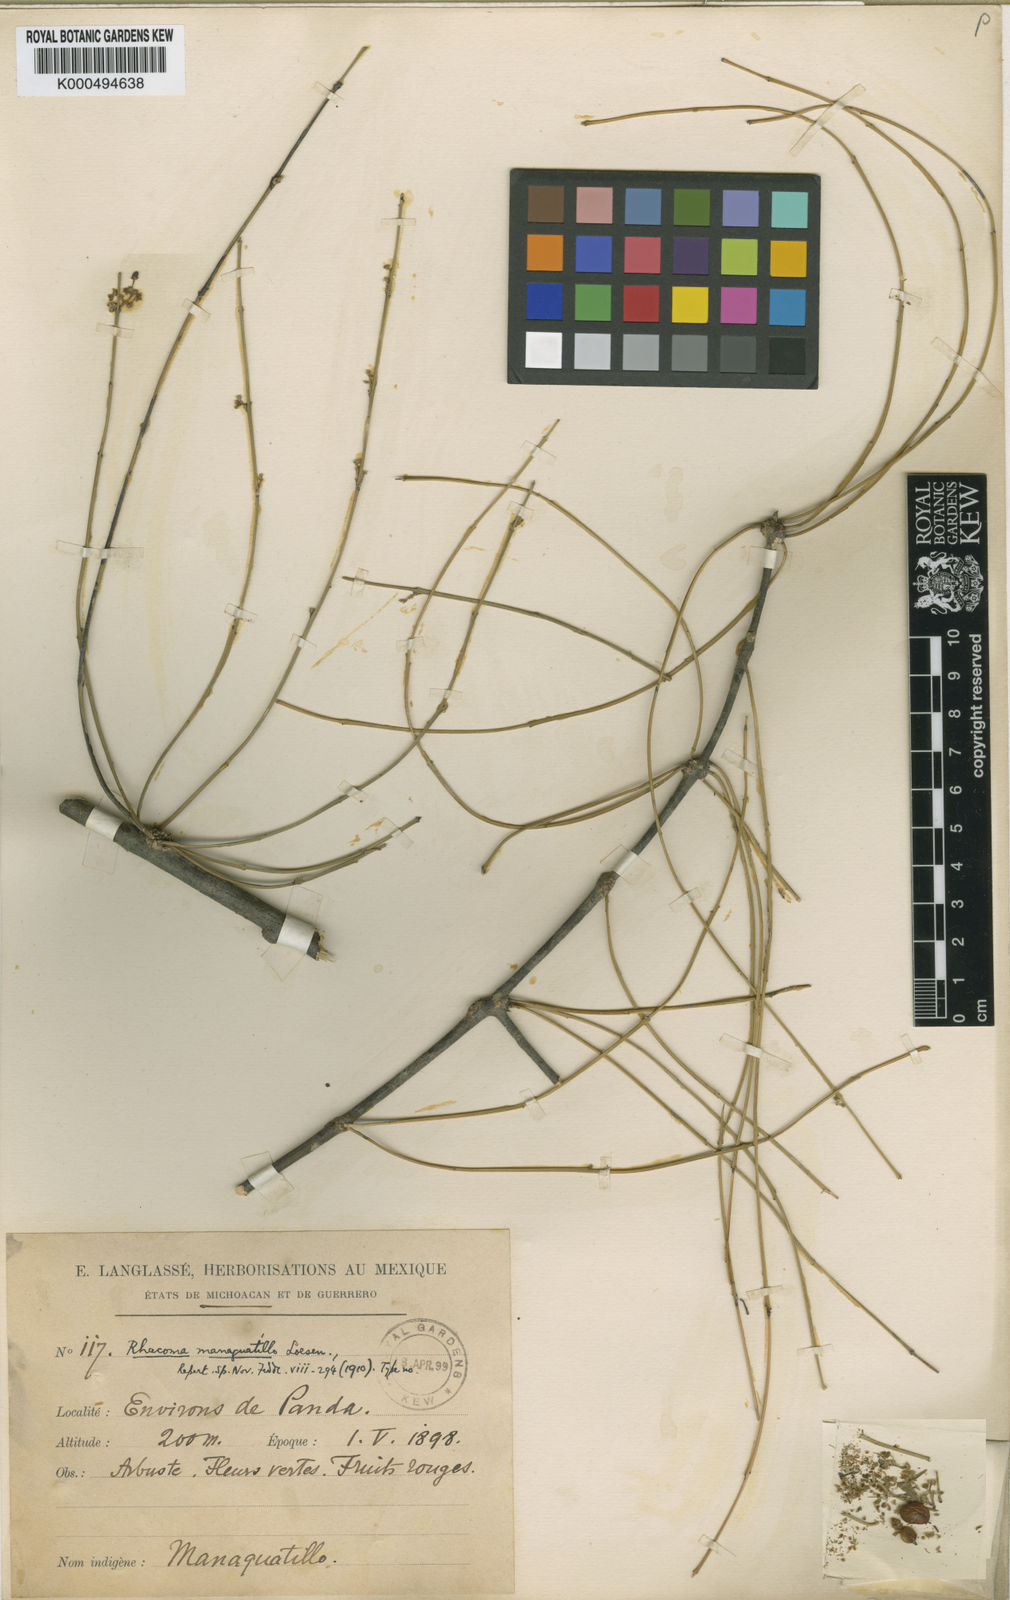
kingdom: Plantae
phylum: Tracheophyta
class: Magnoliopsida
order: Celastrales
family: Celastraceae
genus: Crossopetalum
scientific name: Crossopetalum managuatillo
